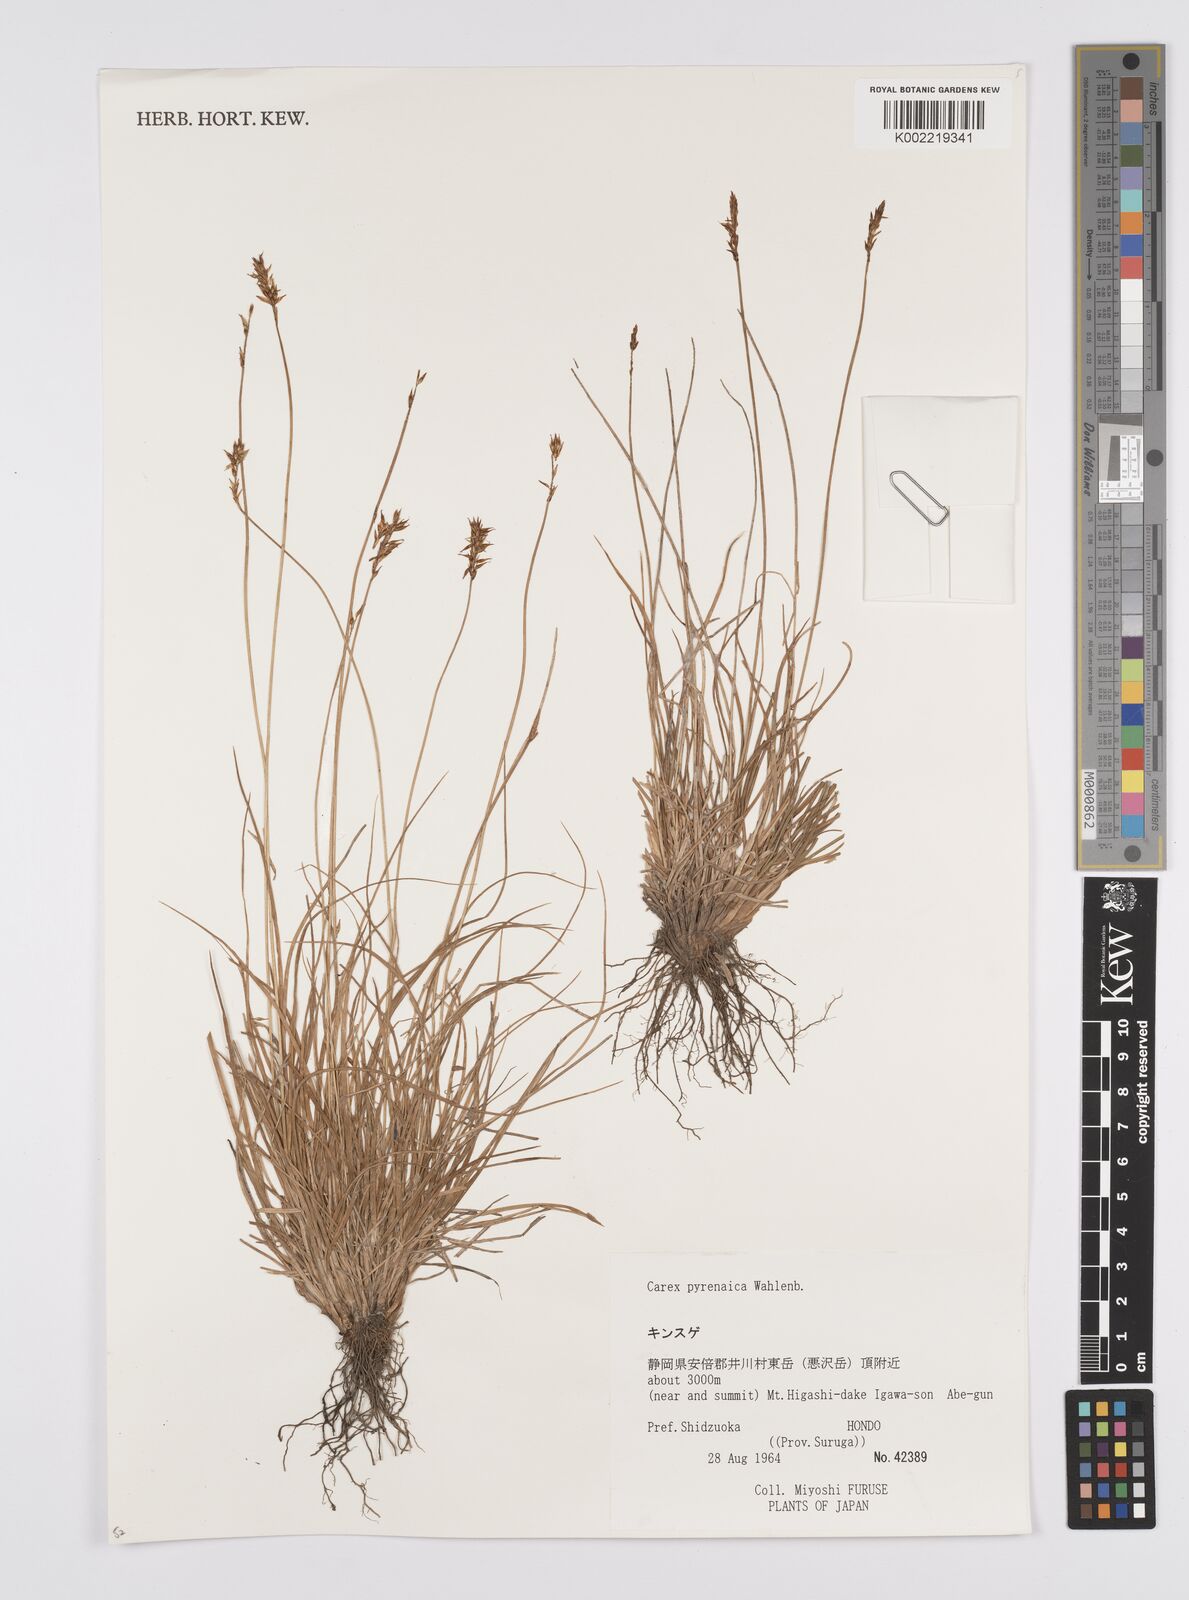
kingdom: Plantae
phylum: Tracheophyta
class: Liliopsida
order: Poales
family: Cyperaceae
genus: Carex
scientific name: Carex pyrenaica
